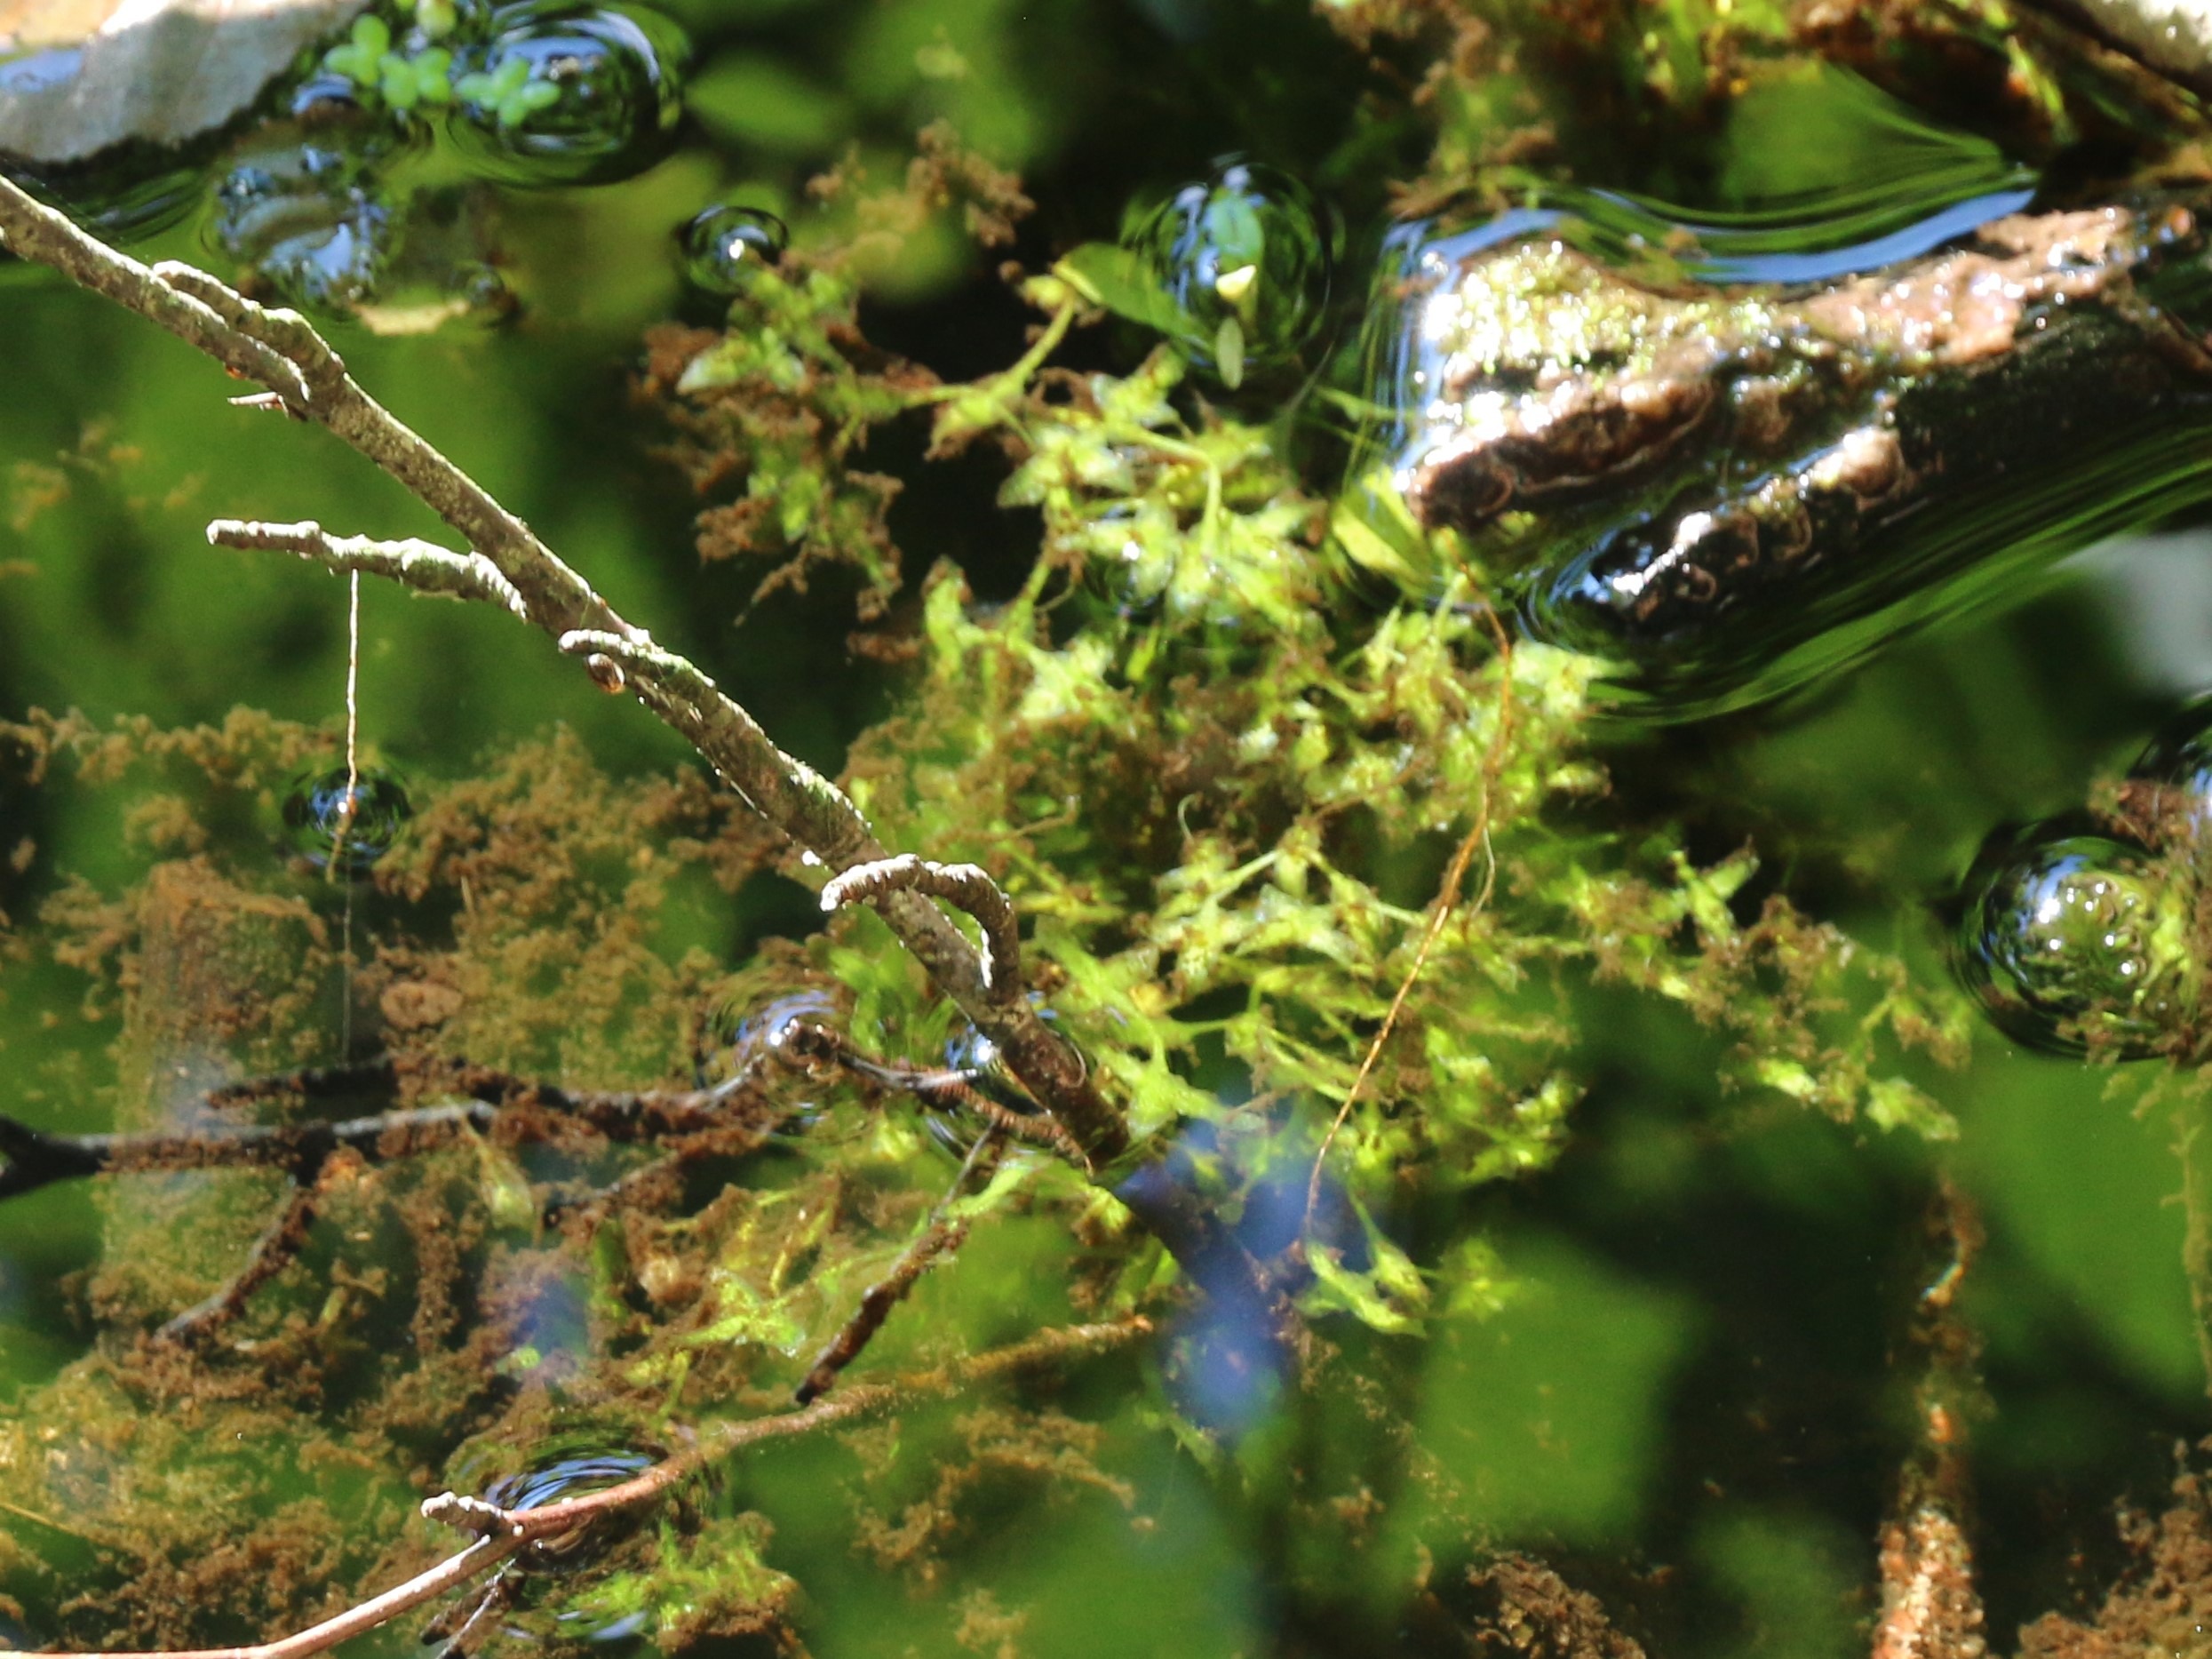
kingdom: Plantae
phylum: Tracheophyta
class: Liliopsida
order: Alismatales
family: Araceae
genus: Lemna
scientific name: Lemna trisulca
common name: Kors-andemad
